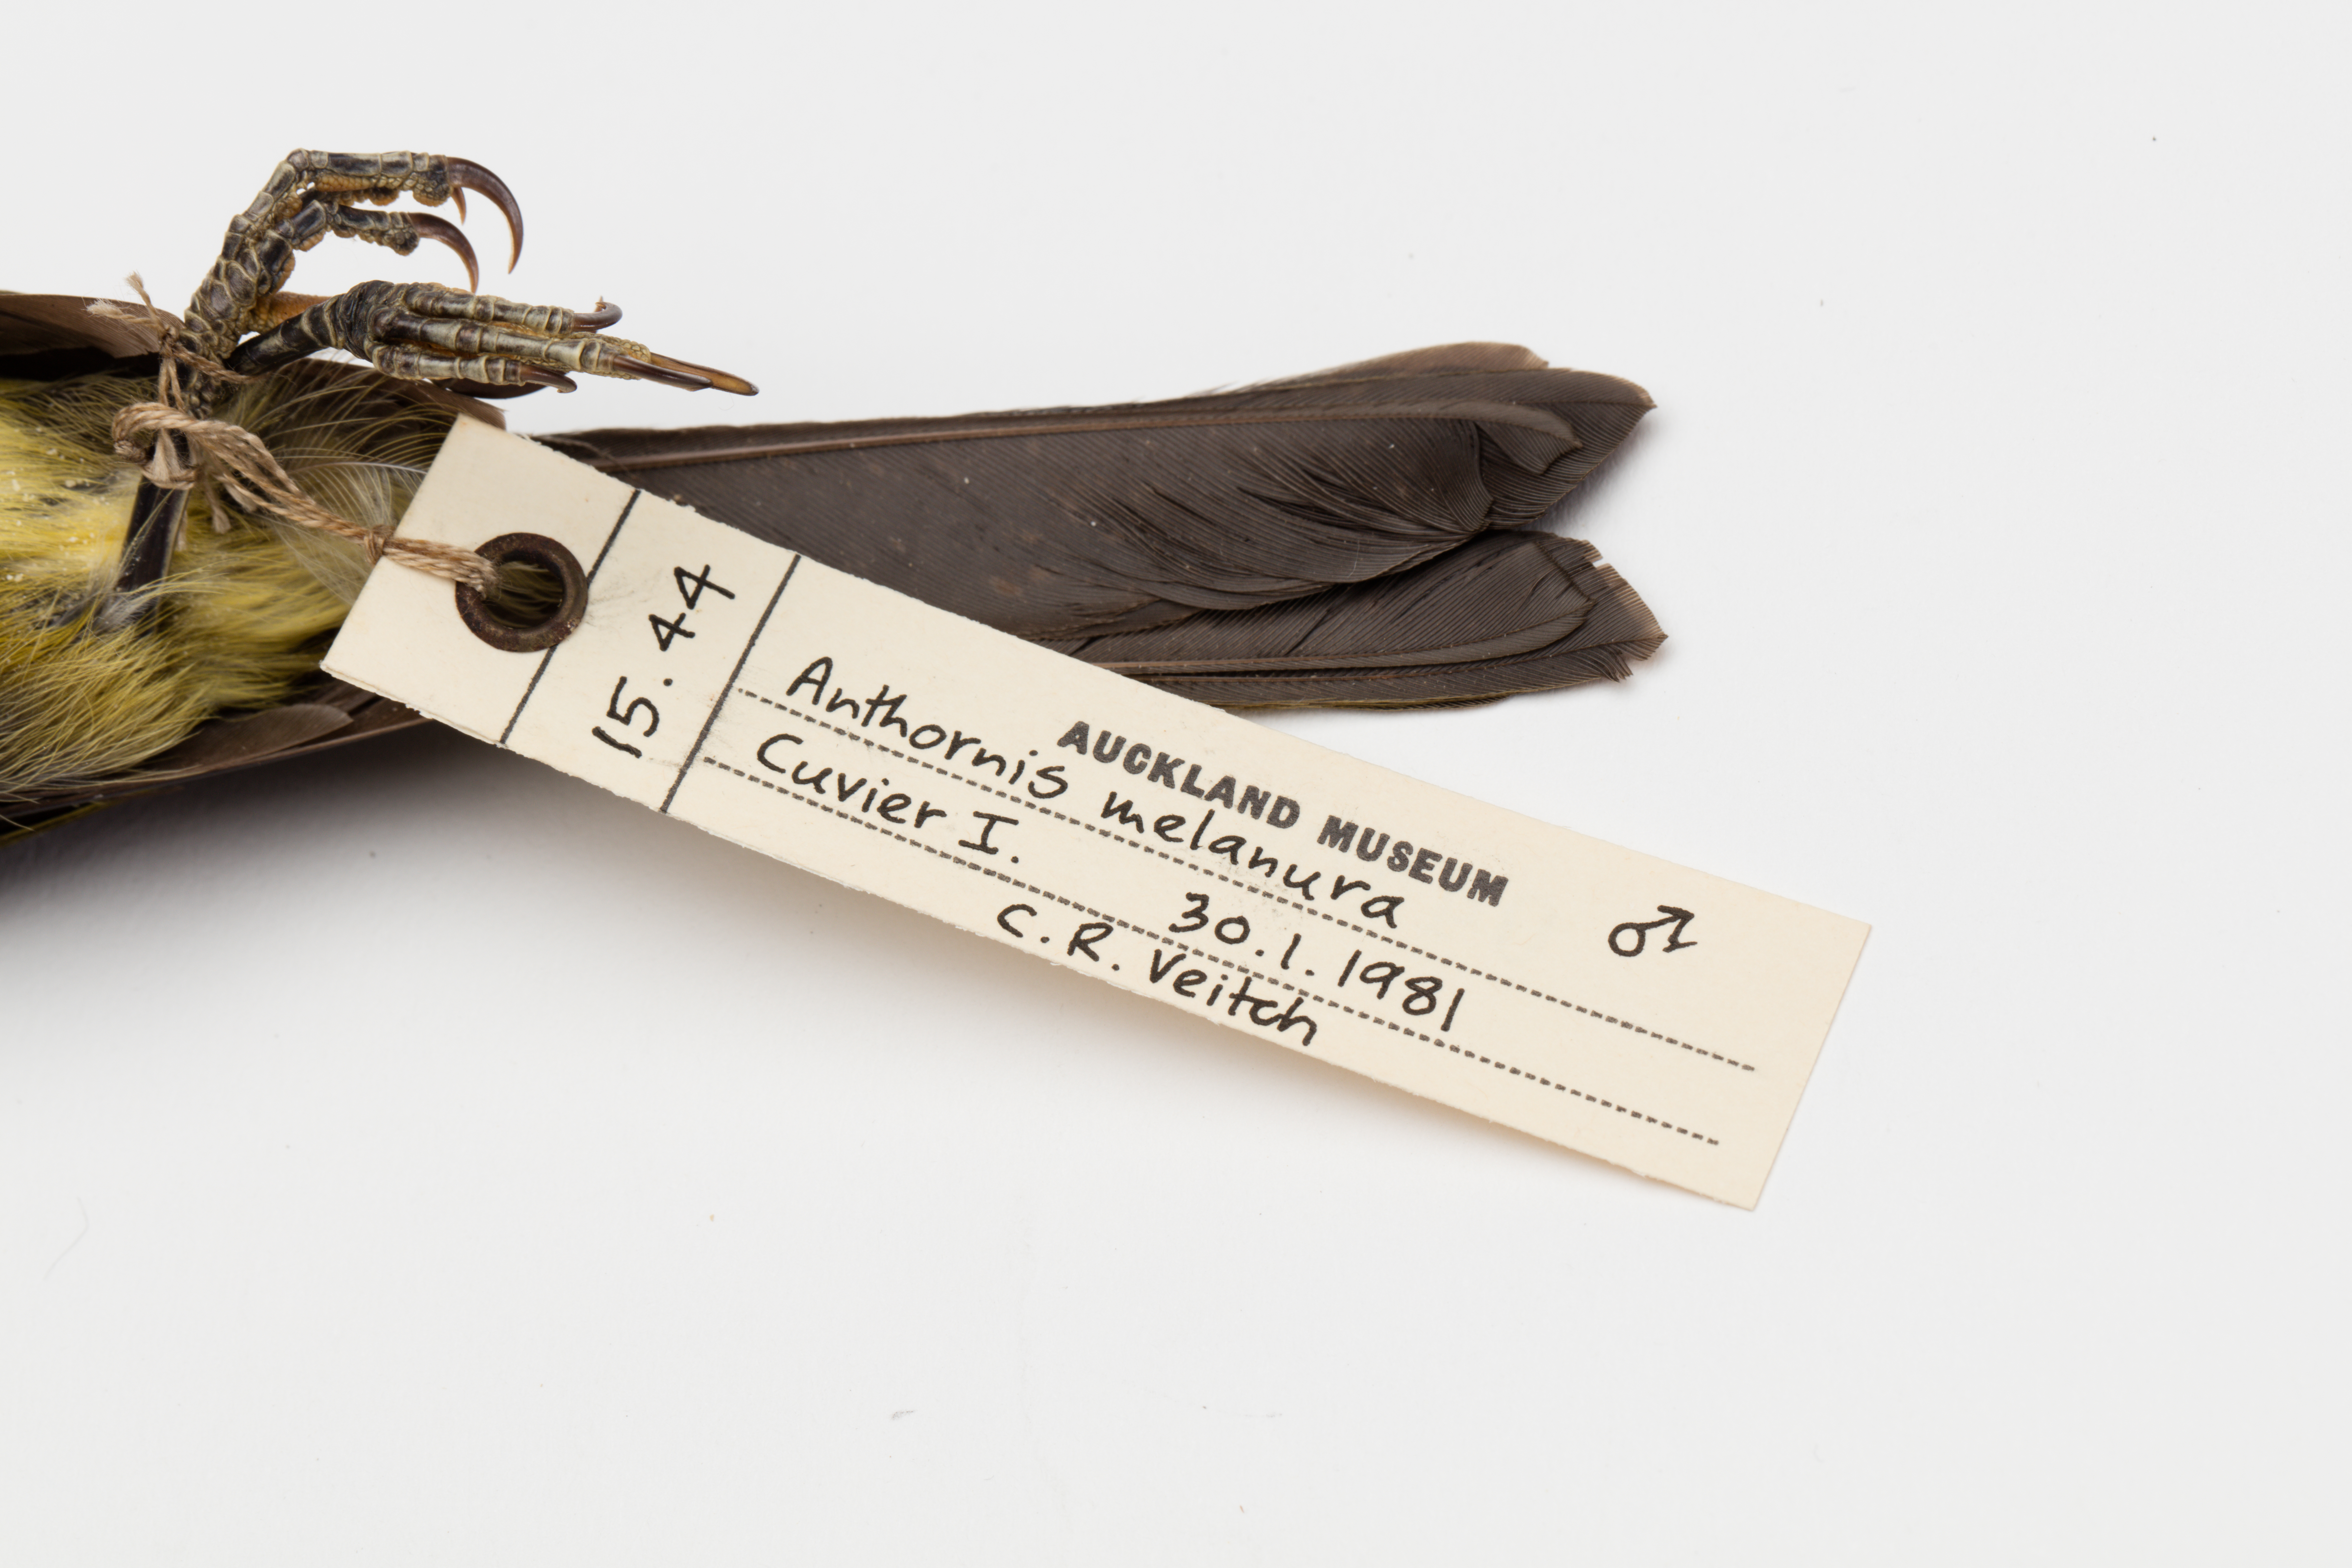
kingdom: Animalia
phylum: Chordata
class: Aves
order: Passeriformes
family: Meliphagidae
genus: Anthornis
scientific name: Anthornis melanura
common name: New zealand bellbird
